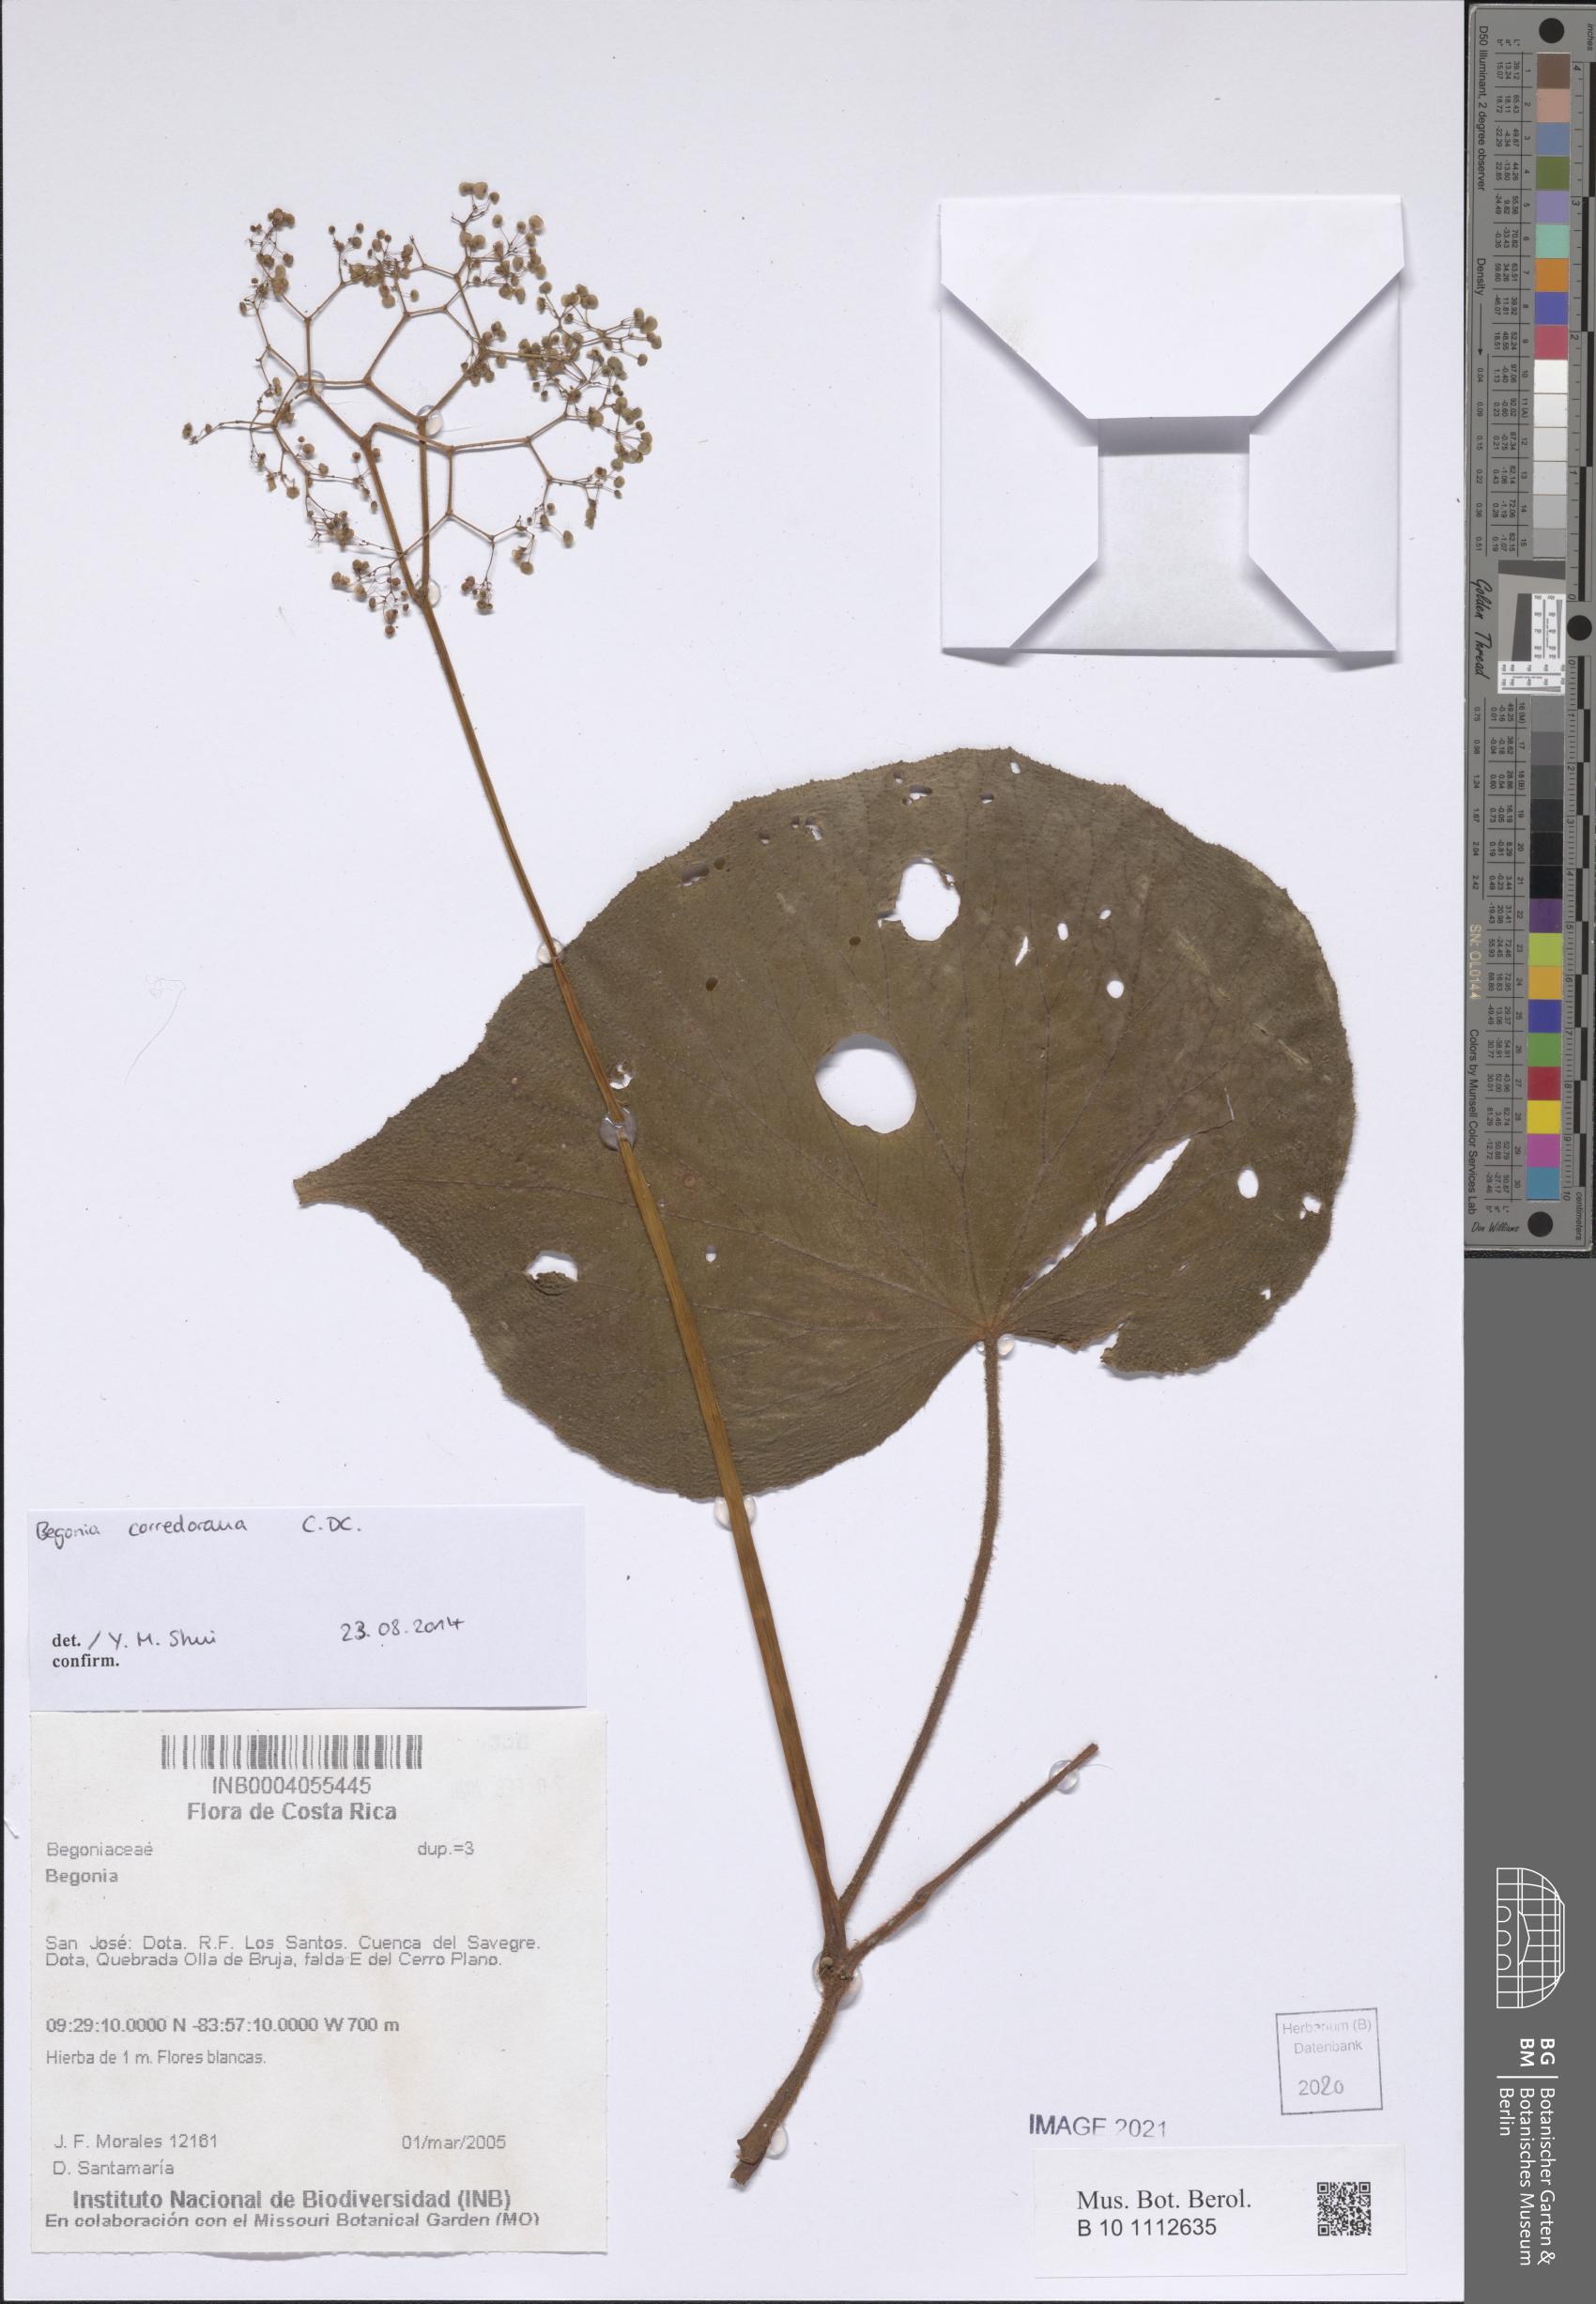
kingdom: Plantae
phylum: Tracheophyta
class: Magnoliopsida
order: Cucurbitales
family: Begoniaceae
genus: Begonia
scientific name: Begonia corredorana
